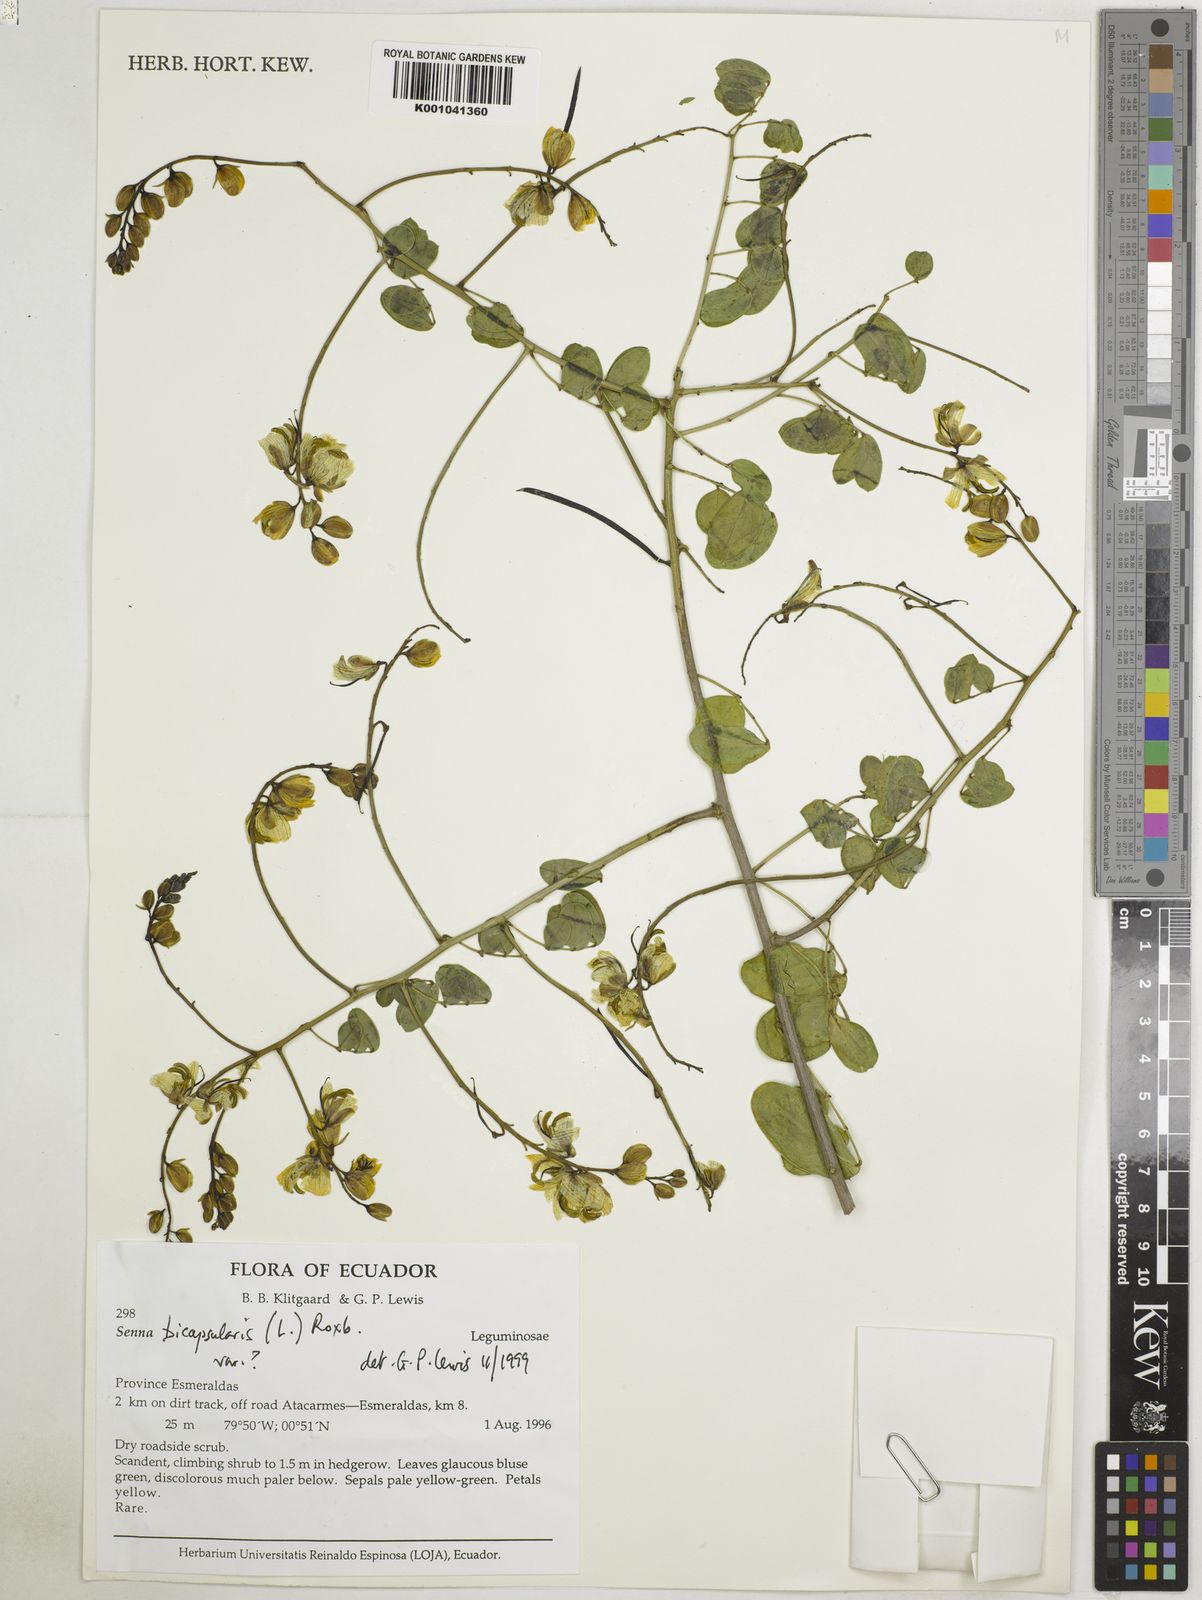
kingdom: Plantae
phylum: Tracheophyta
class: Magnoliopsida
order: Fabales
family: Fabaceae
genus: Senna
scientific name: Senna bicapsularis
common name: Christmasbush
